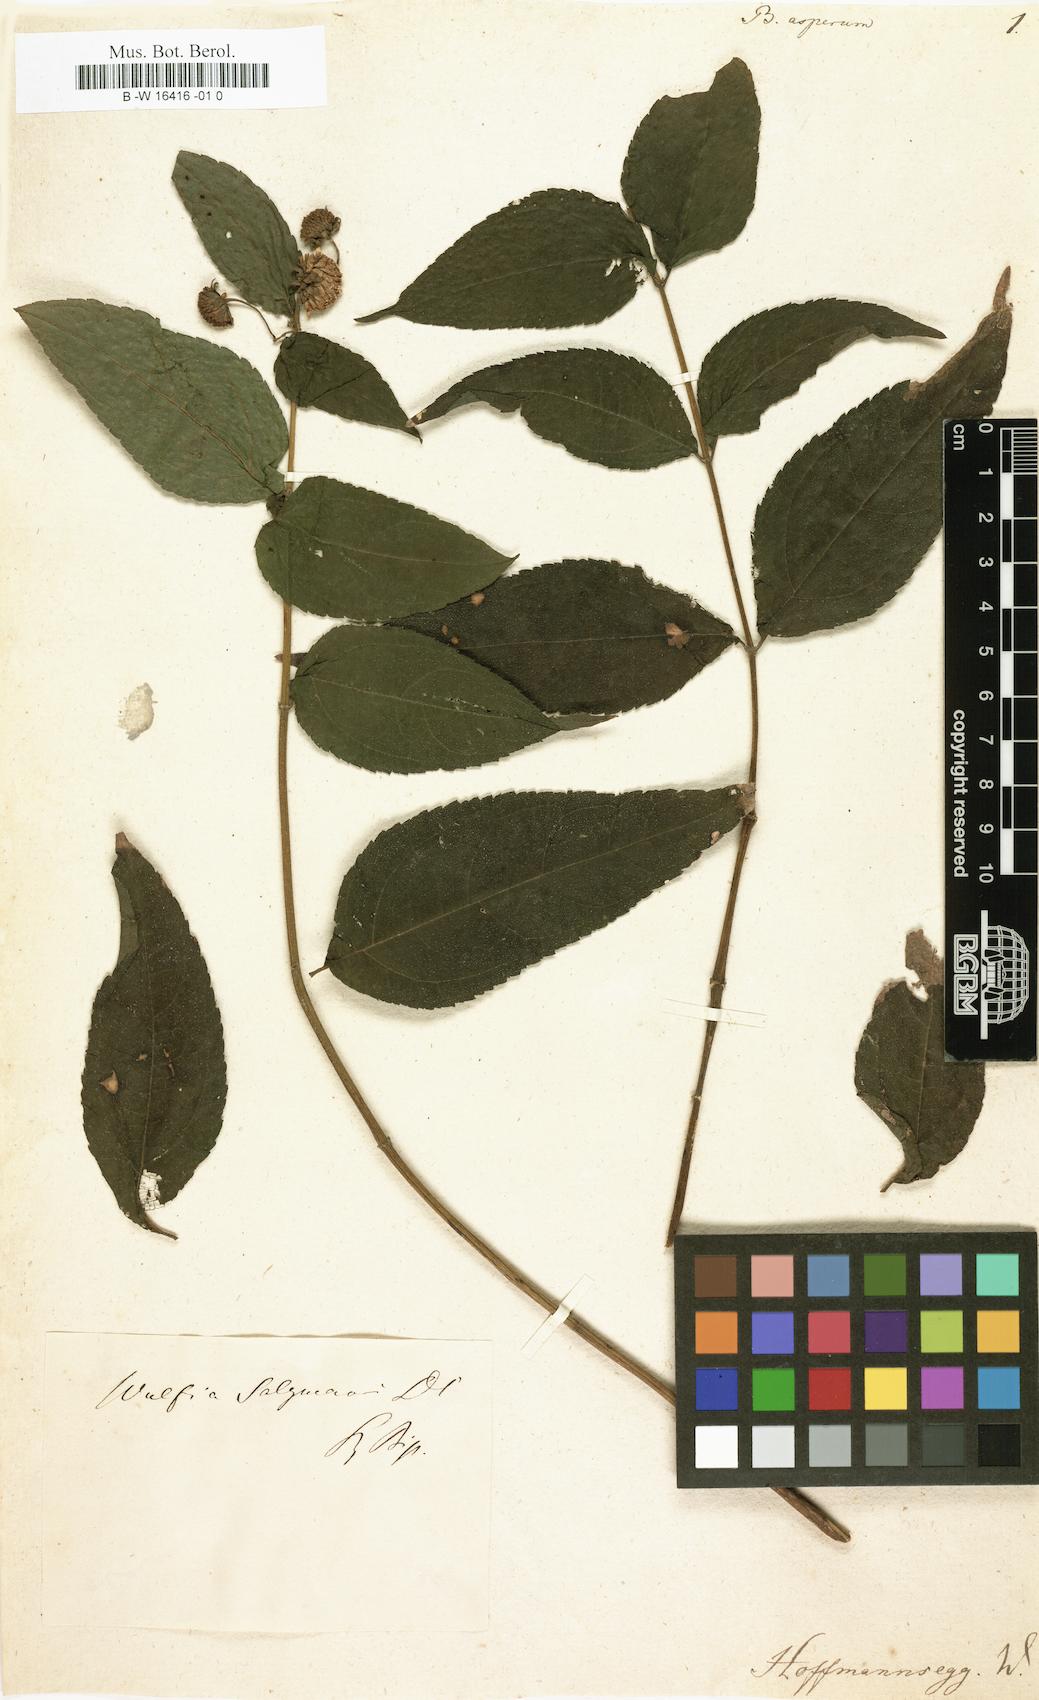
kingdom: Plantae
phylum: Tracheophyta
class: Magnoliopsida
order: Asterales
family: Asteraceae
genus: Buphthalmum
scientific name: Buphthalmum asperum
